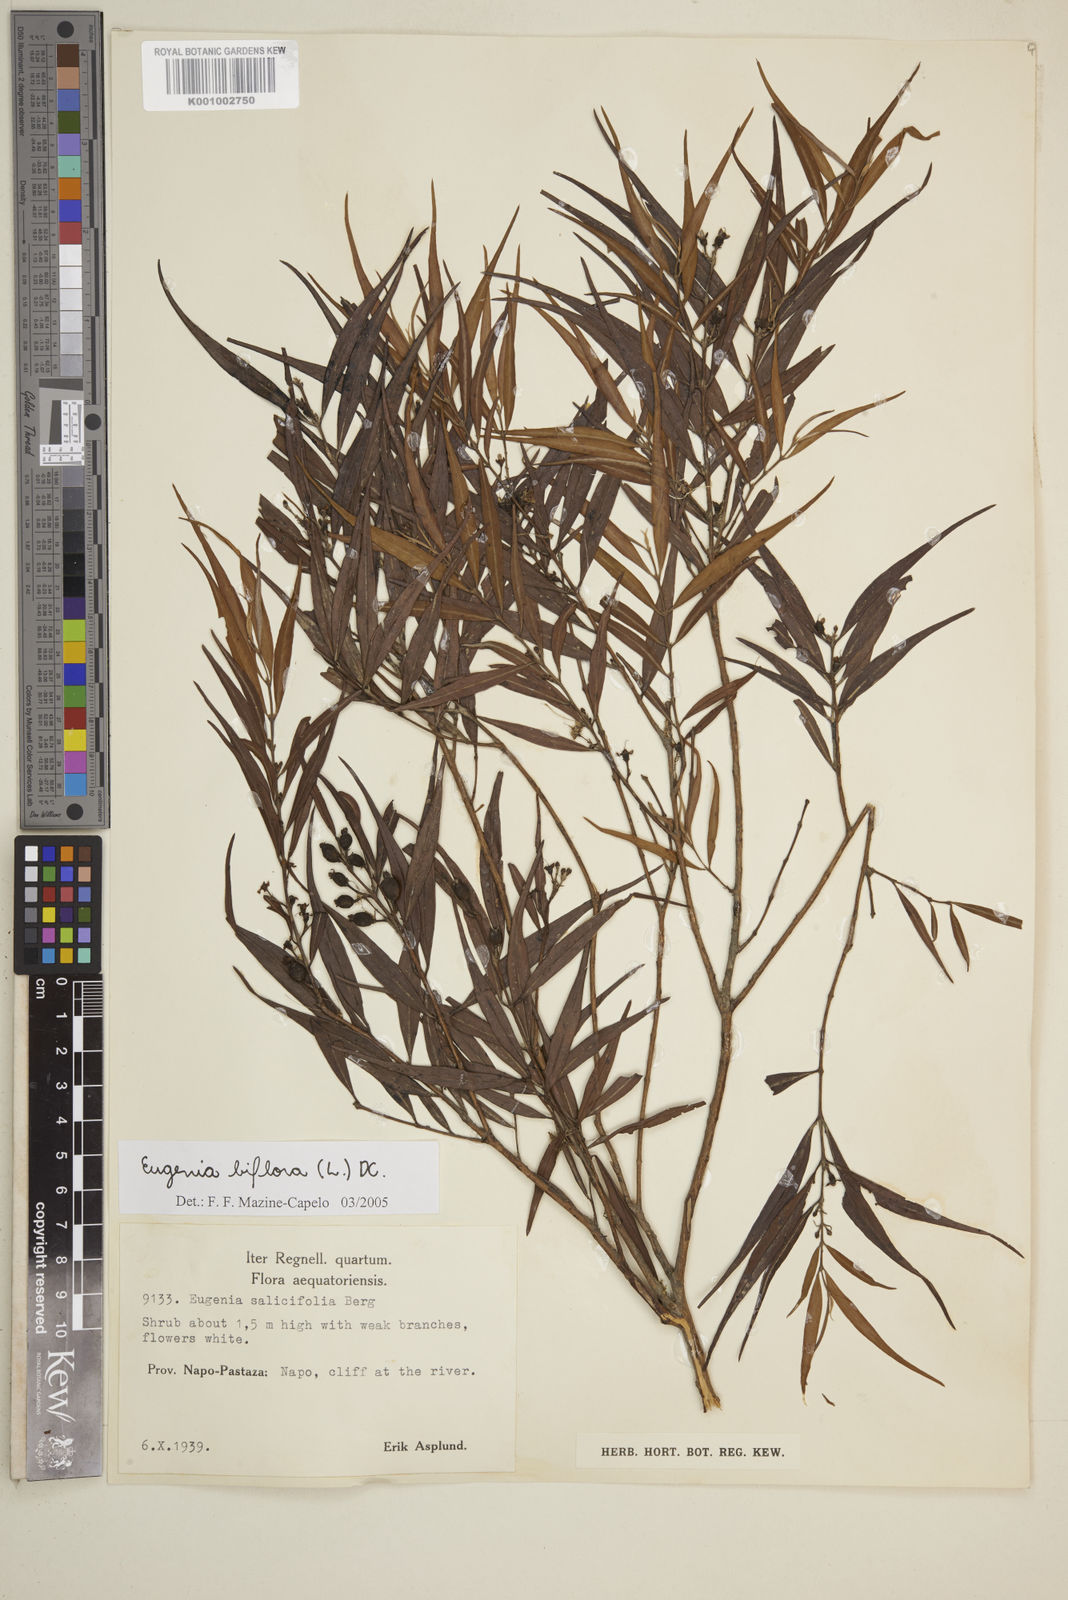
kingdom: Plantae
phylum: Tracheophyta
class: Magnoliopsida
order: Myrtales
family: Myrtaceae
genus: Eugenia
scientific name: Eugenia biflora
